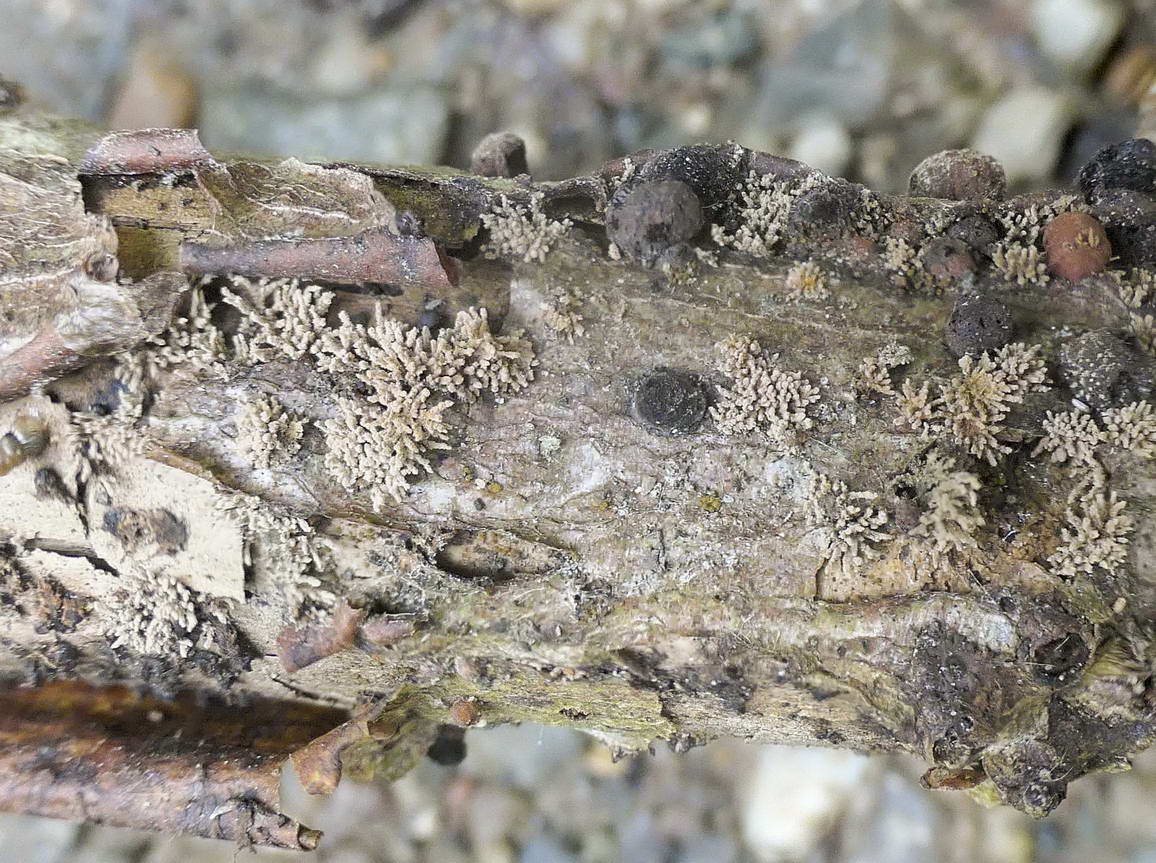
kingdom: Fungi
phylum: Ascomycota
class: Sordariomycetes
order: Xylariales
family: Hypoxylaceae
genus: Hypoxylon
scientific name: Hypoxylon howeanum
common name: halvkugleformet kulbær
